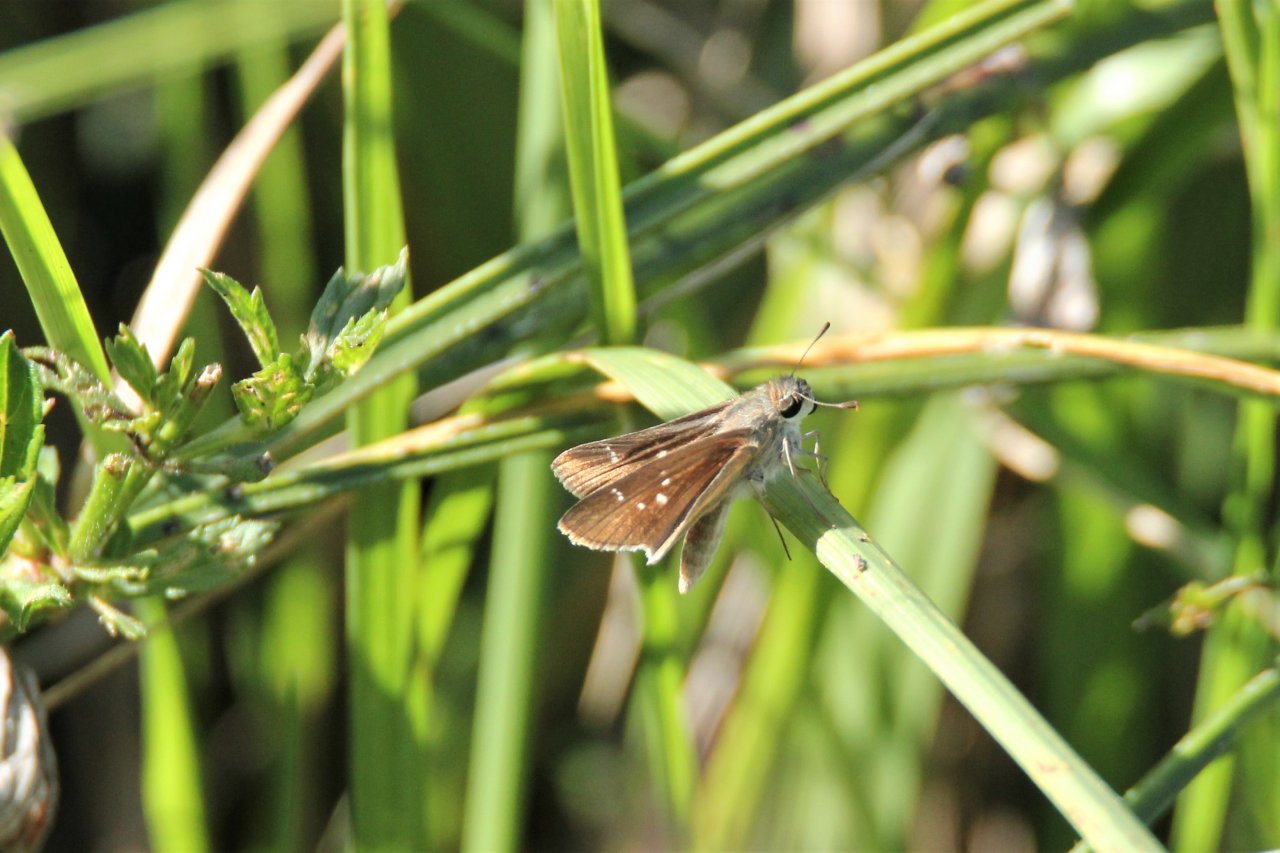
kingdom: Animalia
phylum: Arthropoda
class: Insecta
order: Lepidoptera
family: Hesperiidae
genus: Lerodea
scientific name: Lerodea eufala
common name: Eufala Skipper
